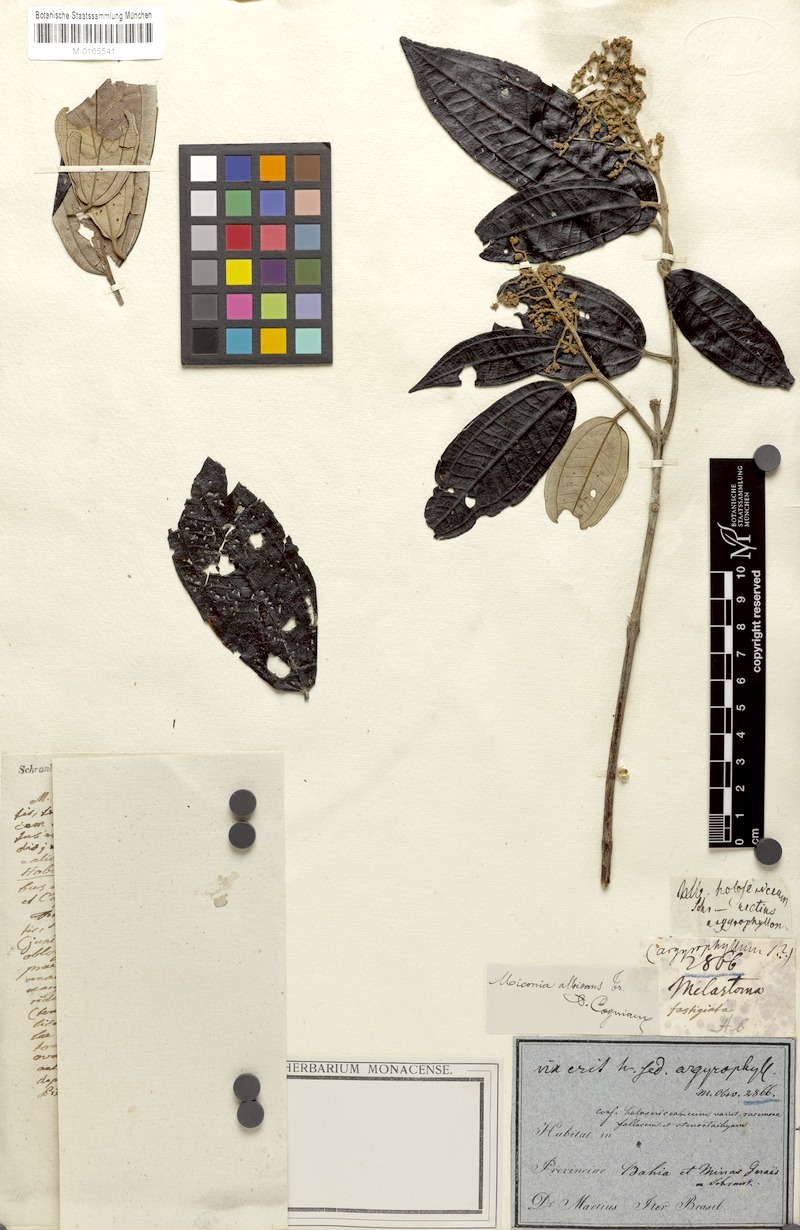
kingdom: Plantae
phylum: Tracheophyta
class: Magnoliopsida
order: Myrtales
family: Melastomataceae
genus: Miconia
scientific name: Miconia albicans
